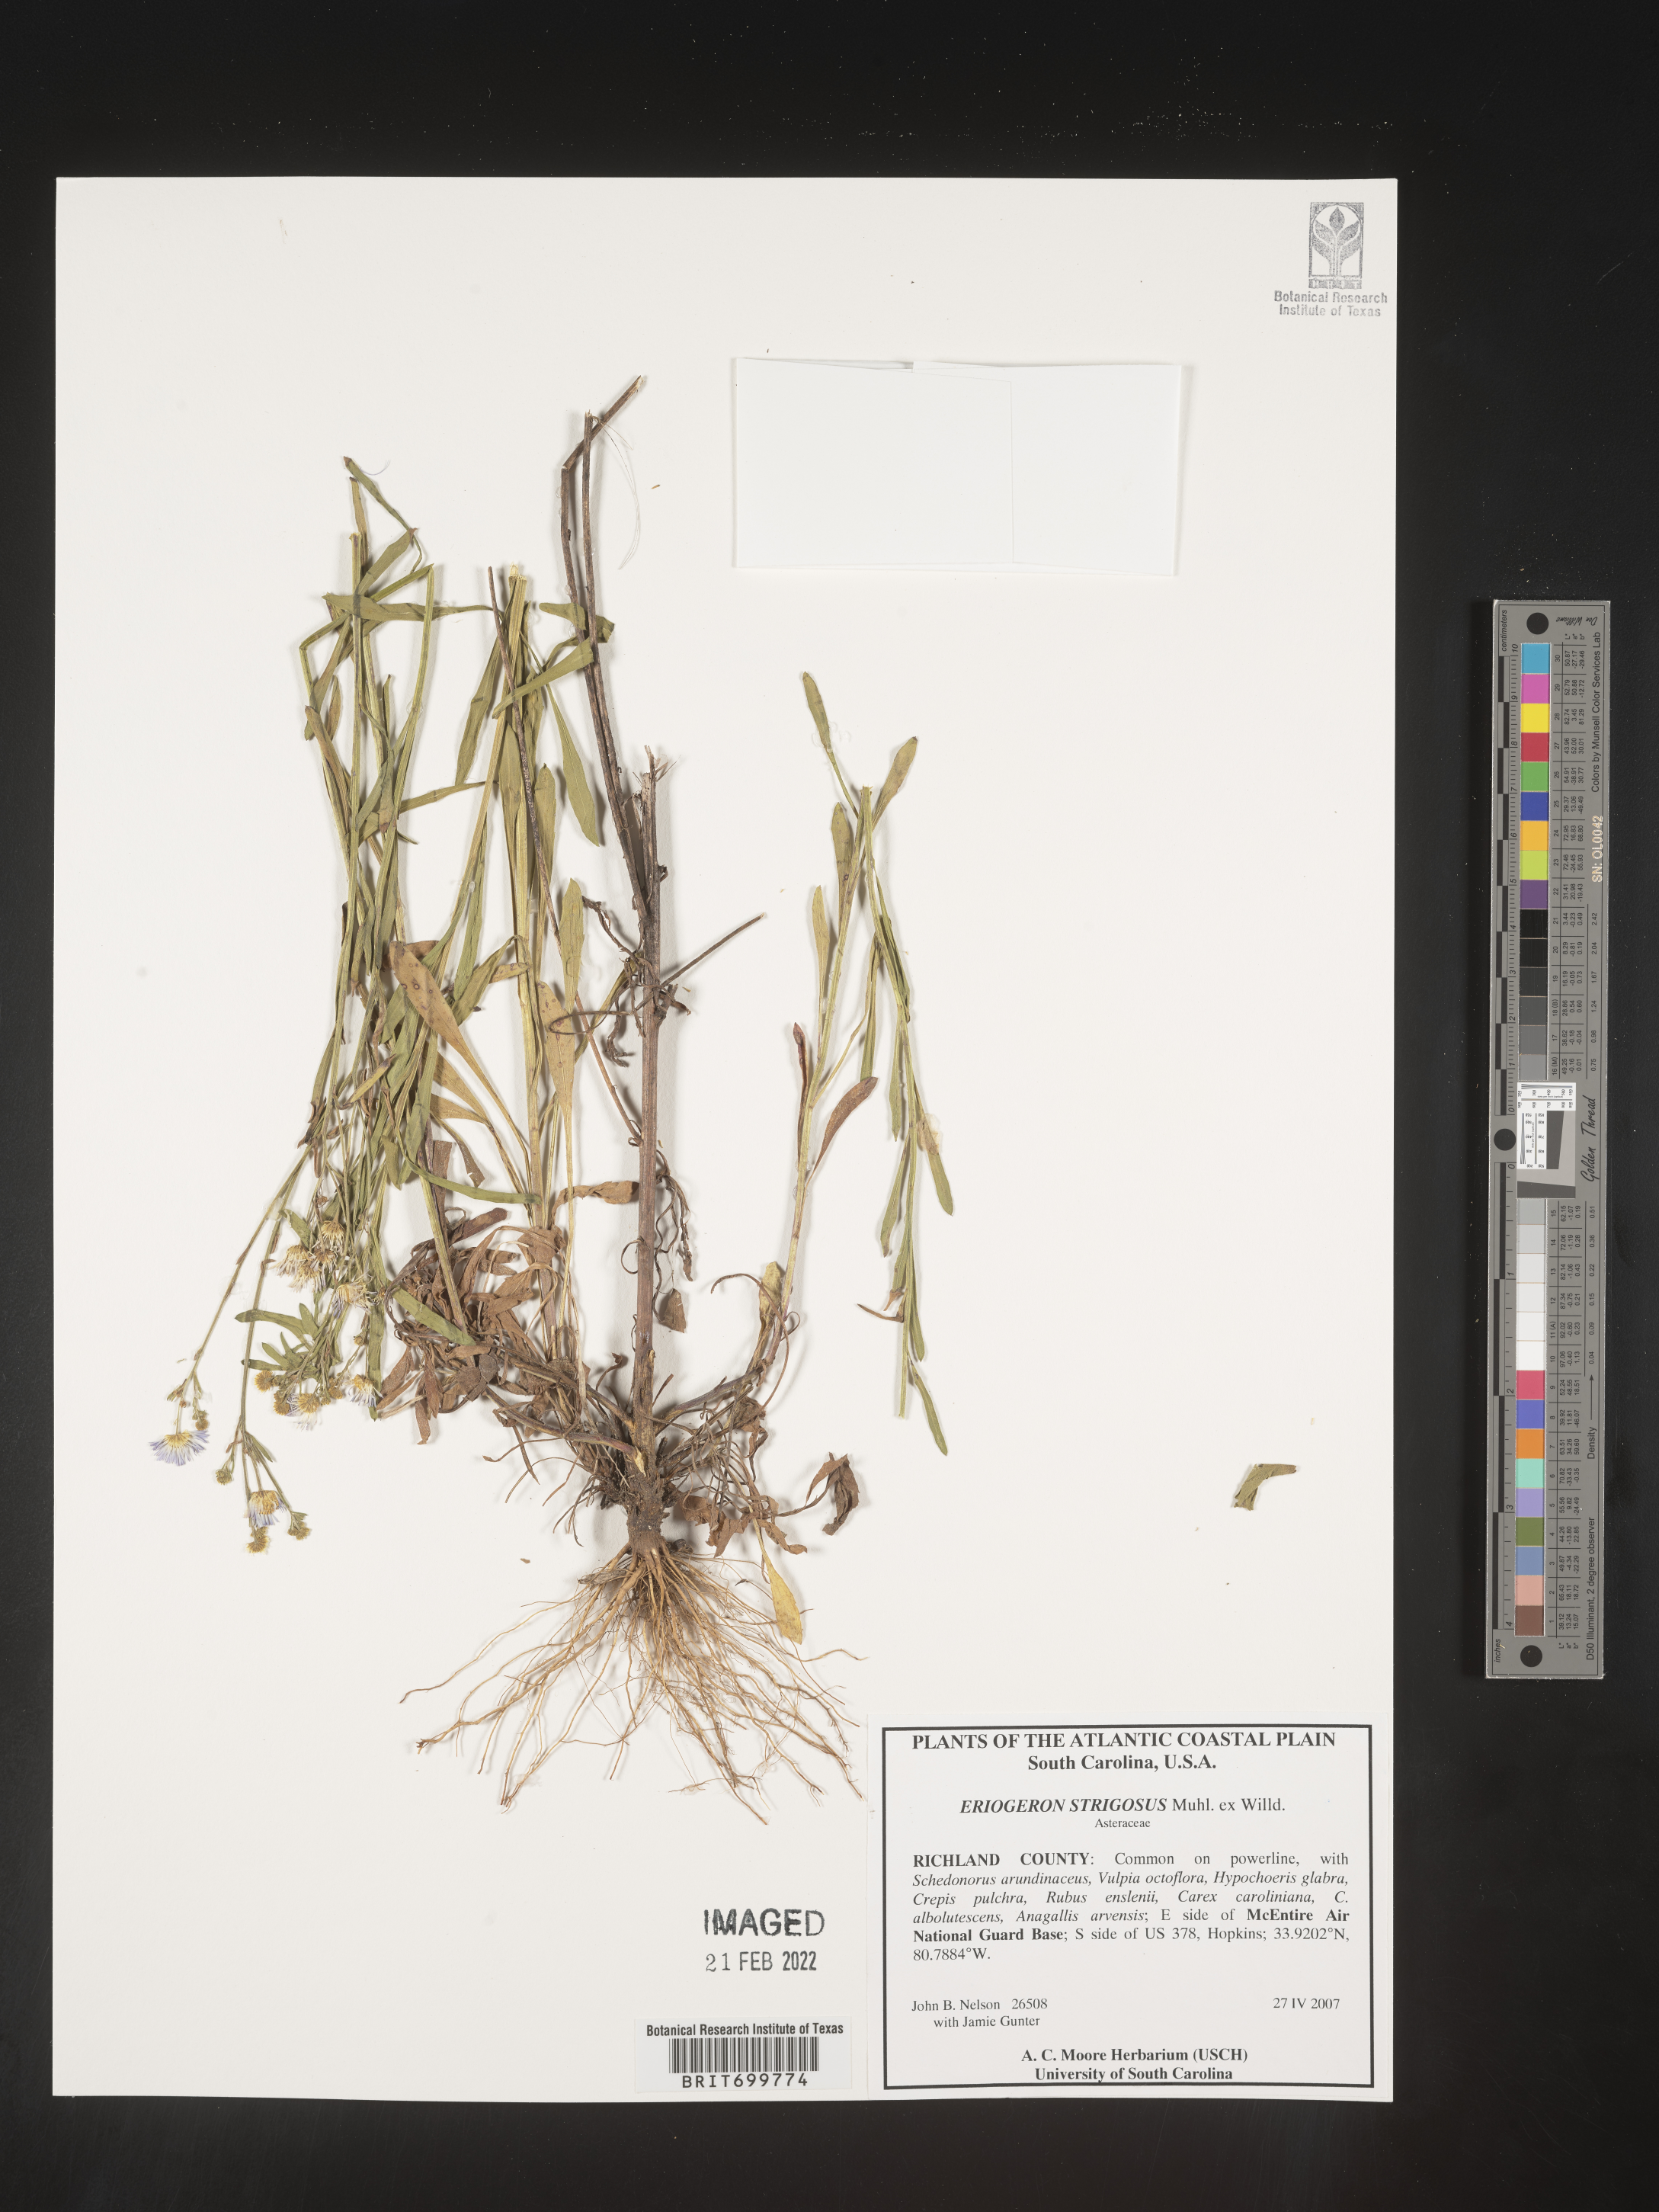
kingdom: Plantae
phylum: Tracheophyta
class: Magnoliopsida
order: Asterales
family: Asteraceae
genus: Erigeron
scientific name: Erigeron strigosus
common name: Common eastern fleabane
